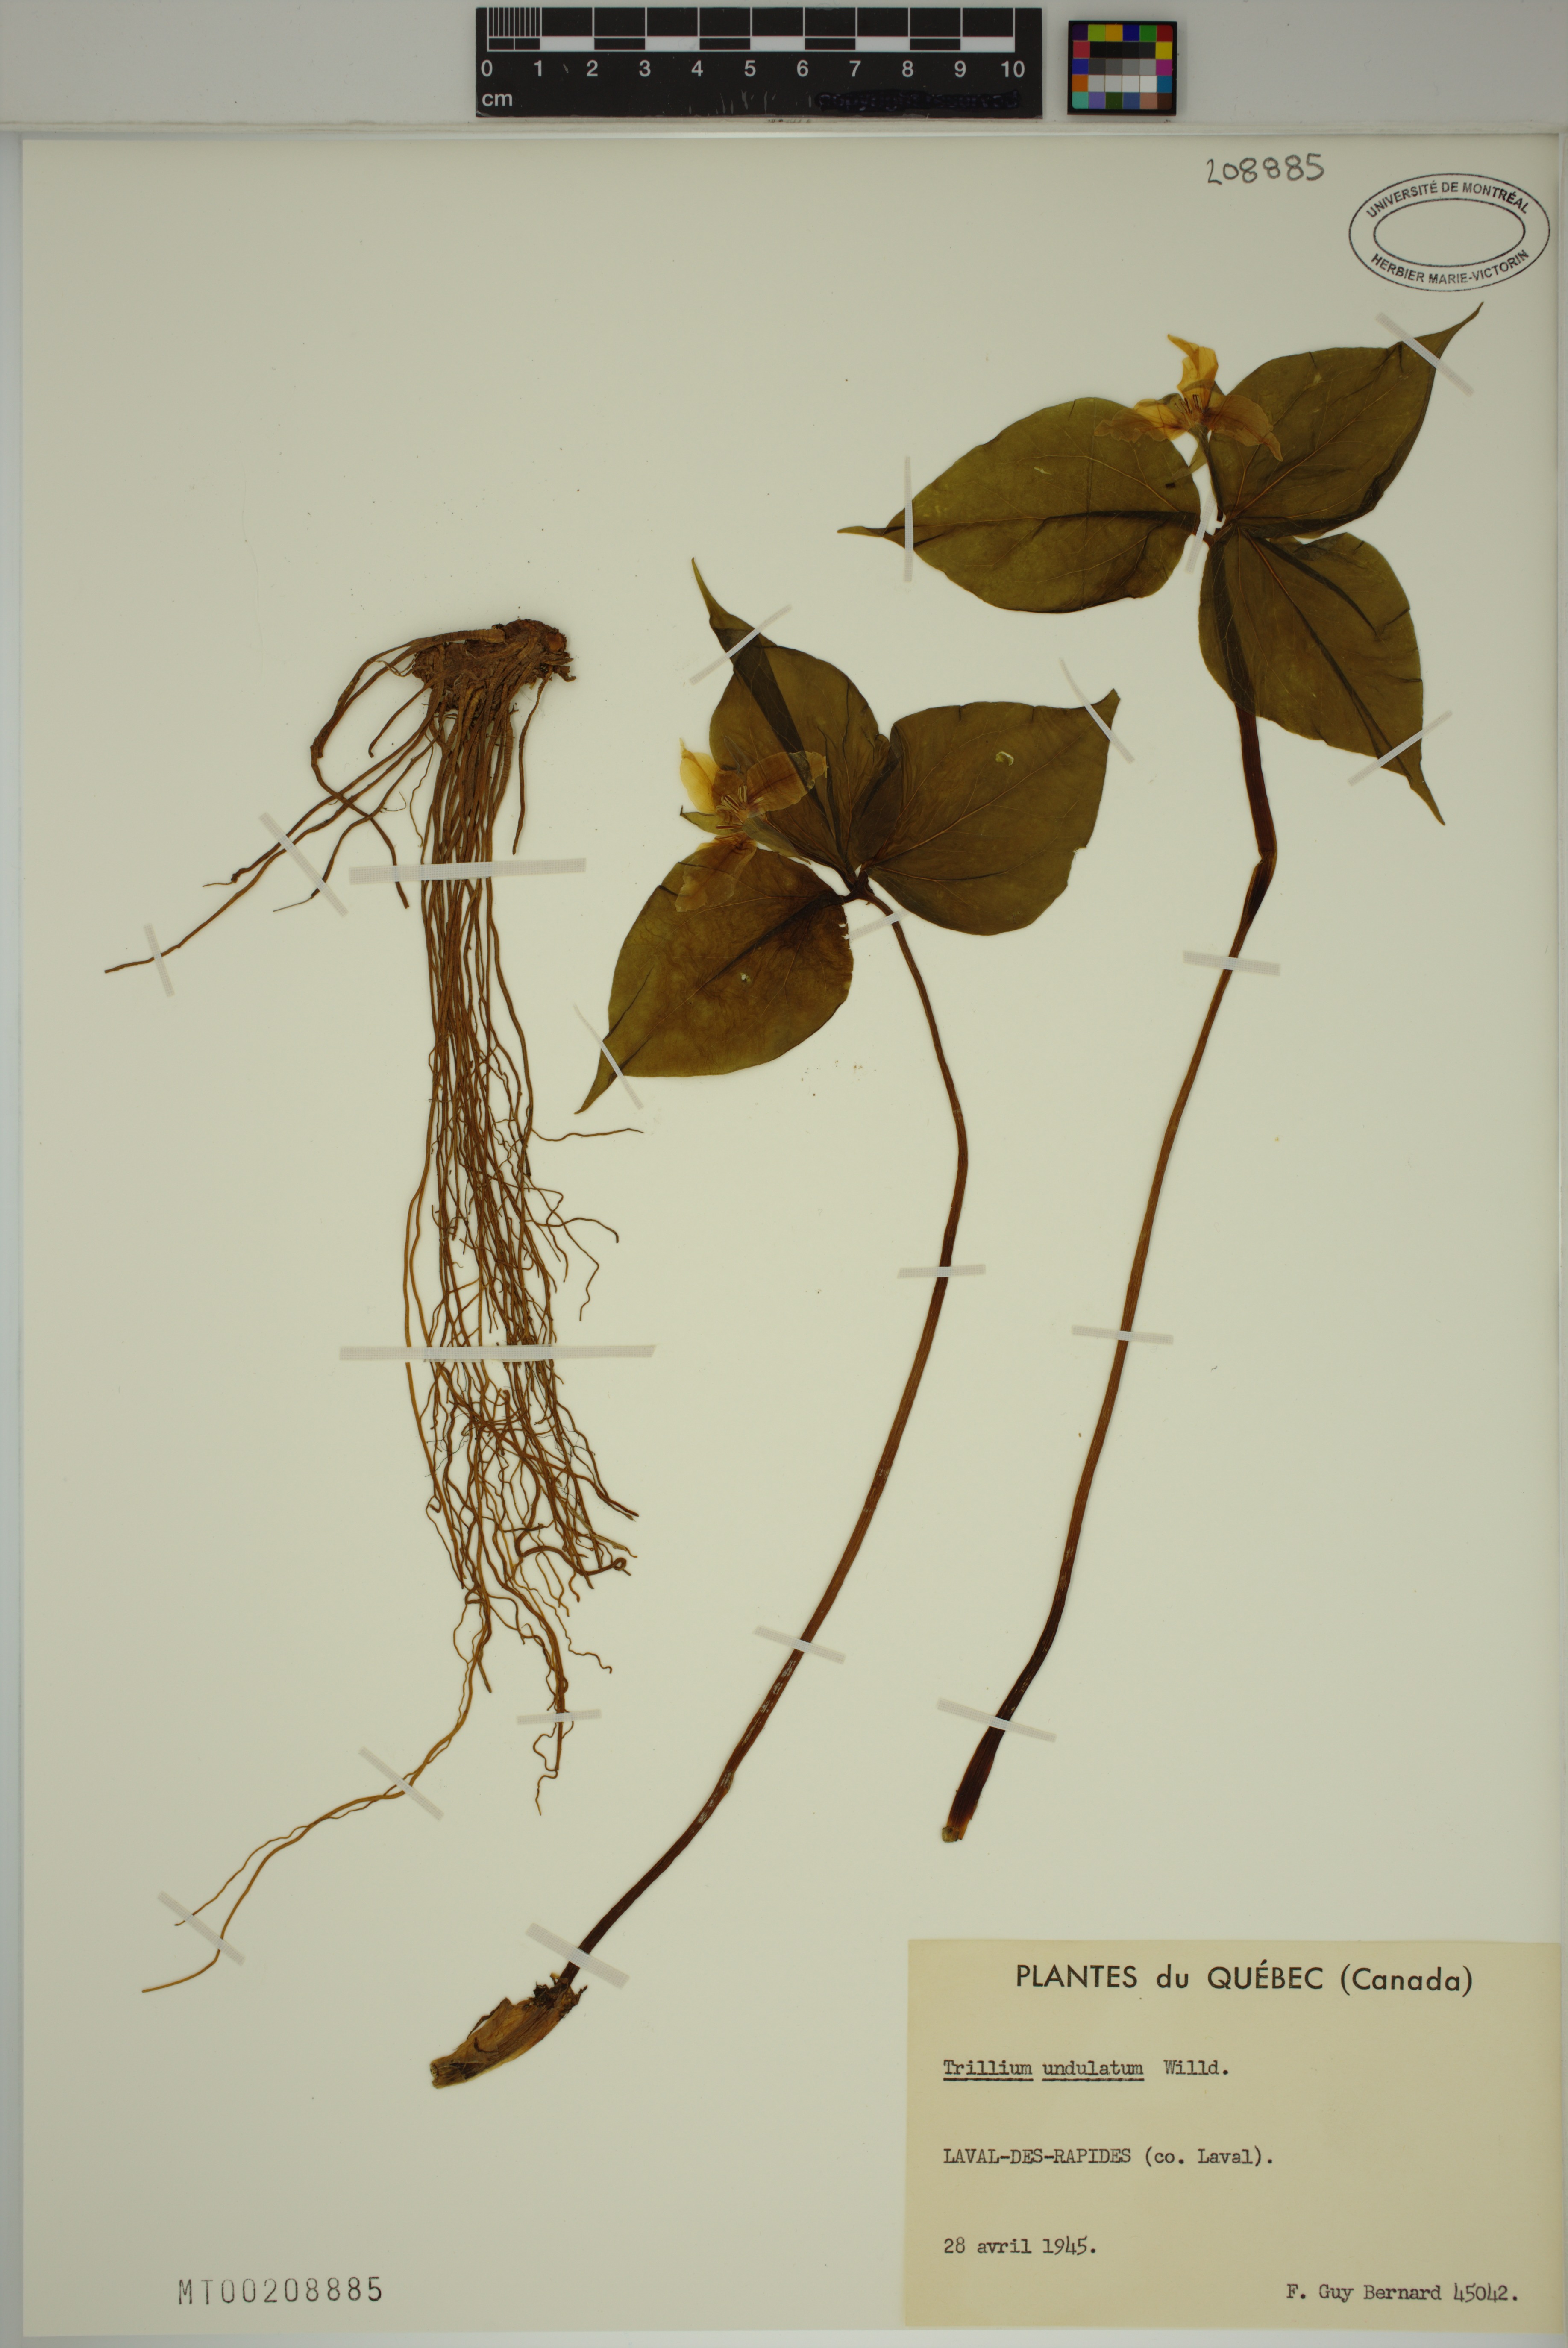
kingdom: Plantae
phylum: Tracheophyta
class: Liliopsida
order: Liliales
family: Melanthiaceae
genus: Trillium
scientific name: Trillium undulatum
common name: Paint trillium
